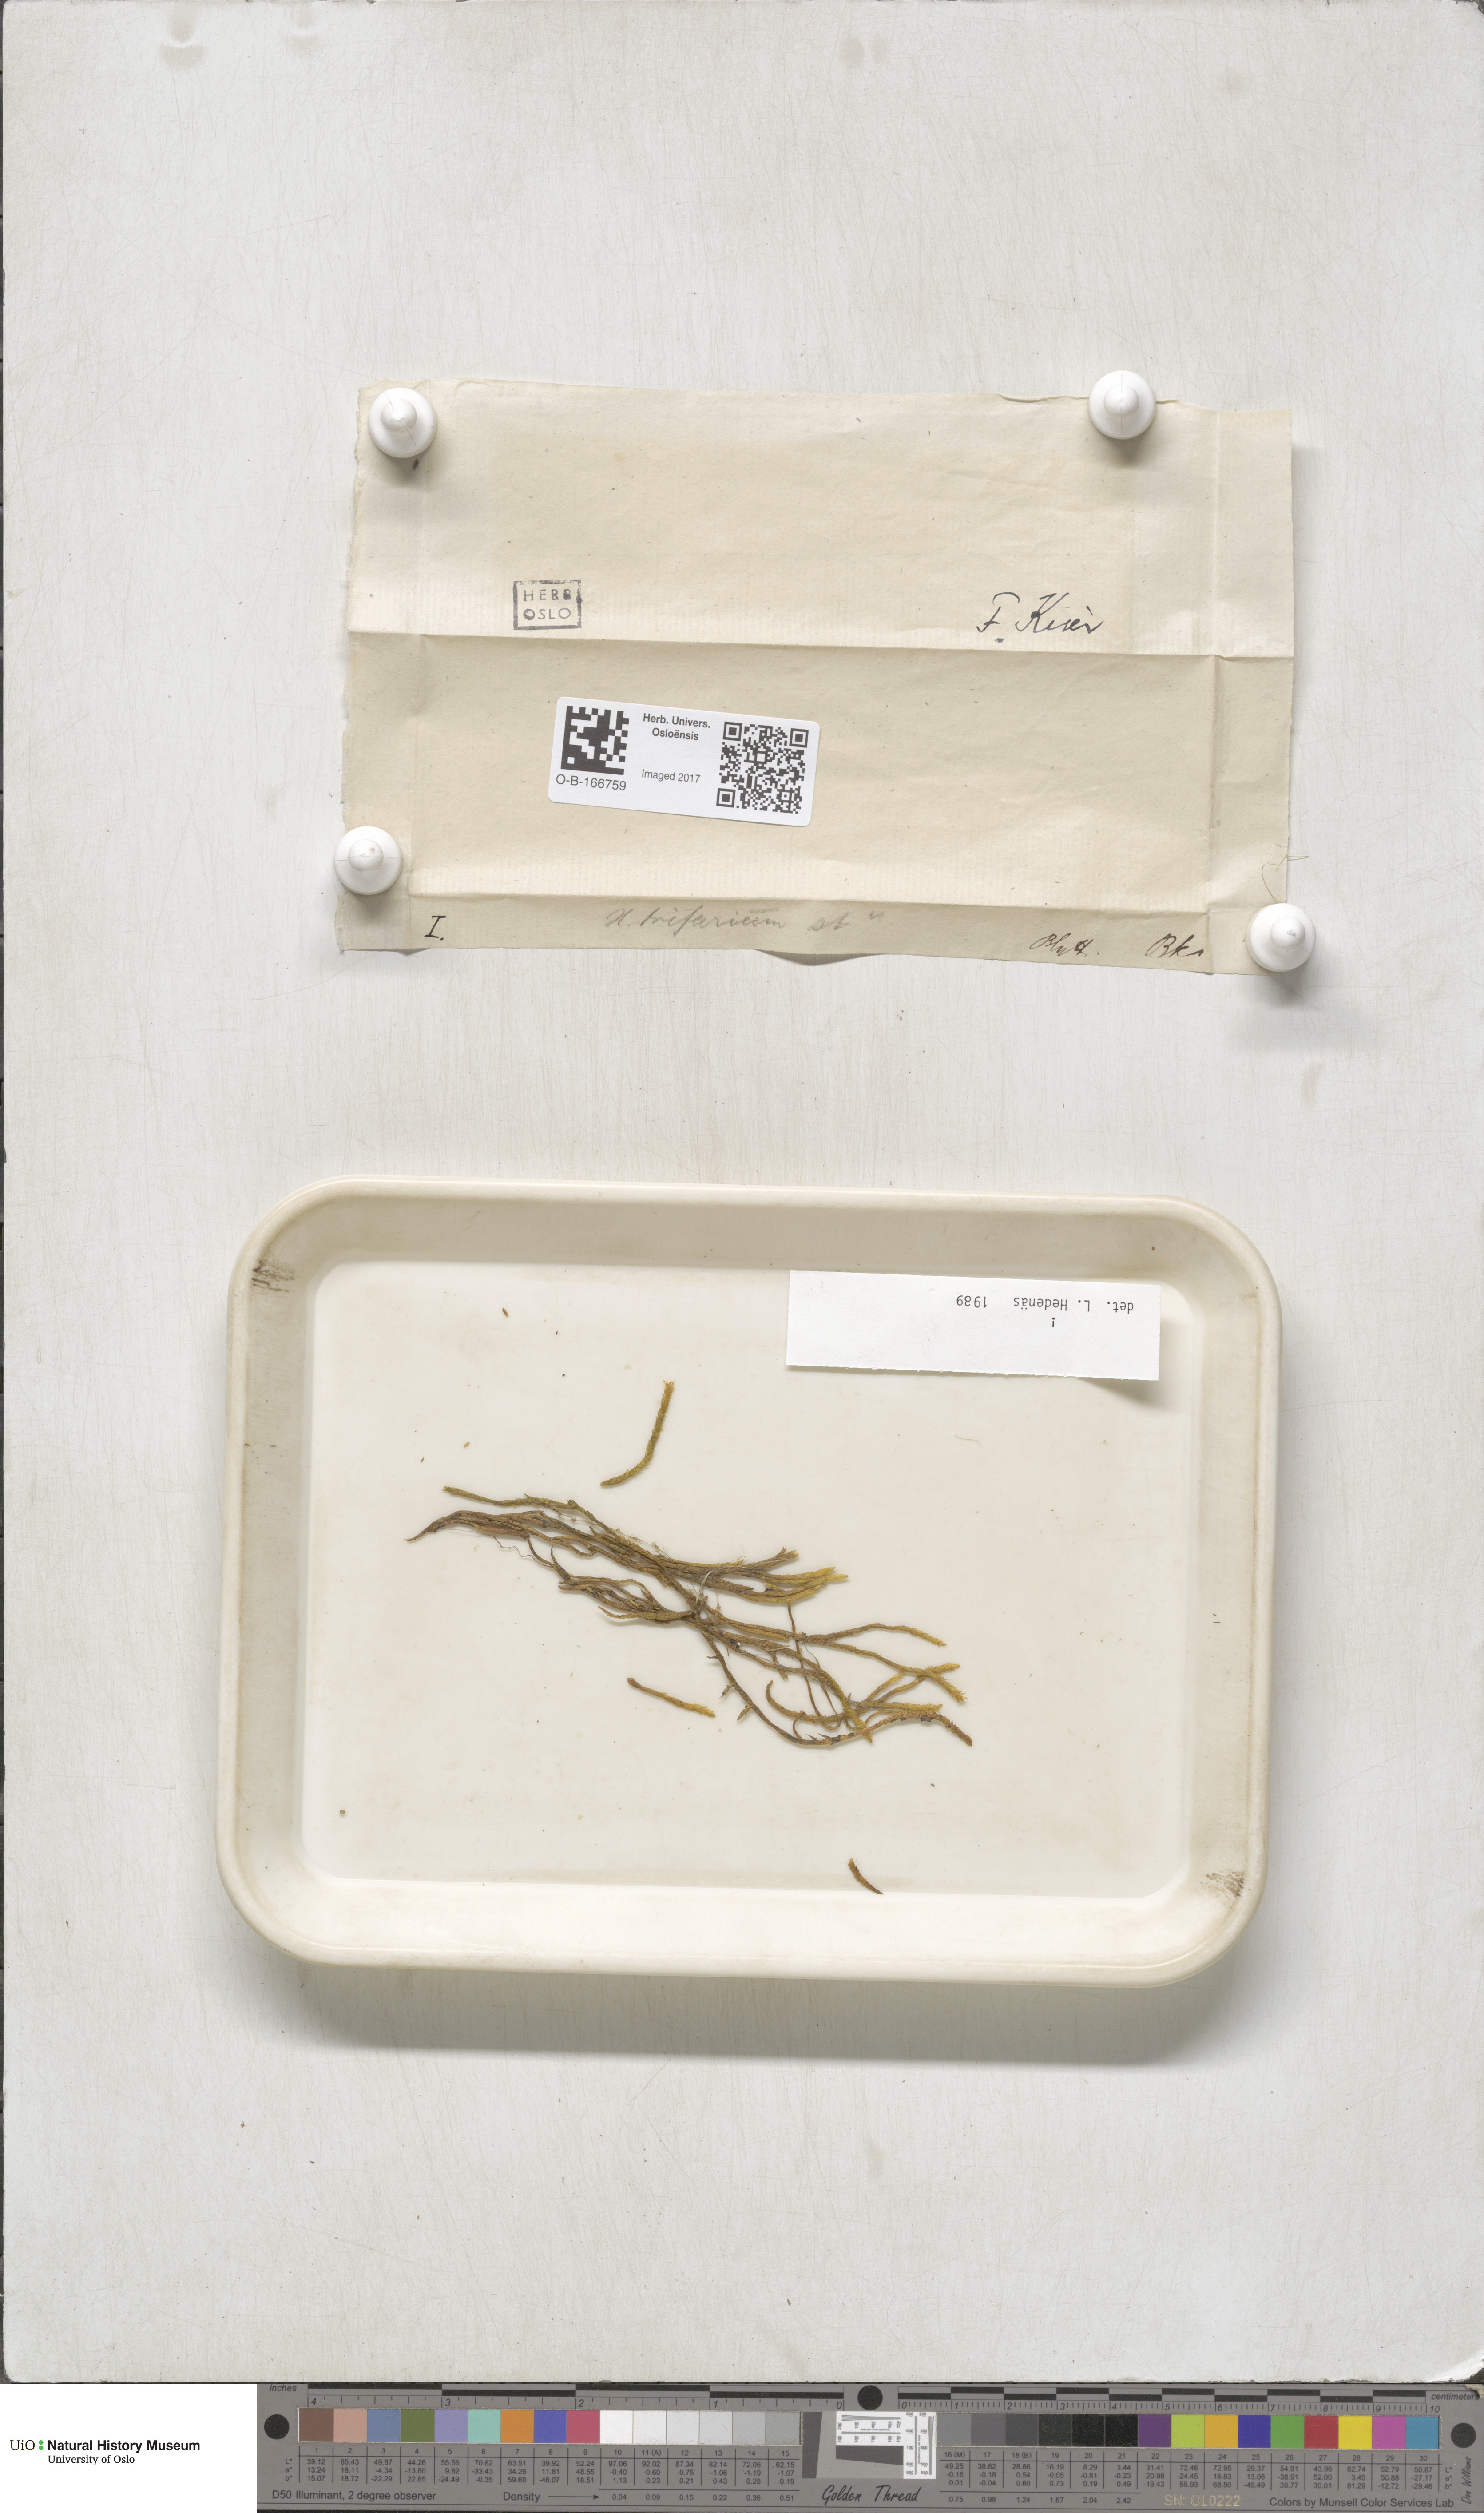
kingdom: Plantae
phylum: Bryophyta
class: Bryopsida
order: Hypnales
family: Amblystegiaceae
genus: Drepanocladus
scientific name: Drepanocladus trifarius
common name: Calliergon moss
